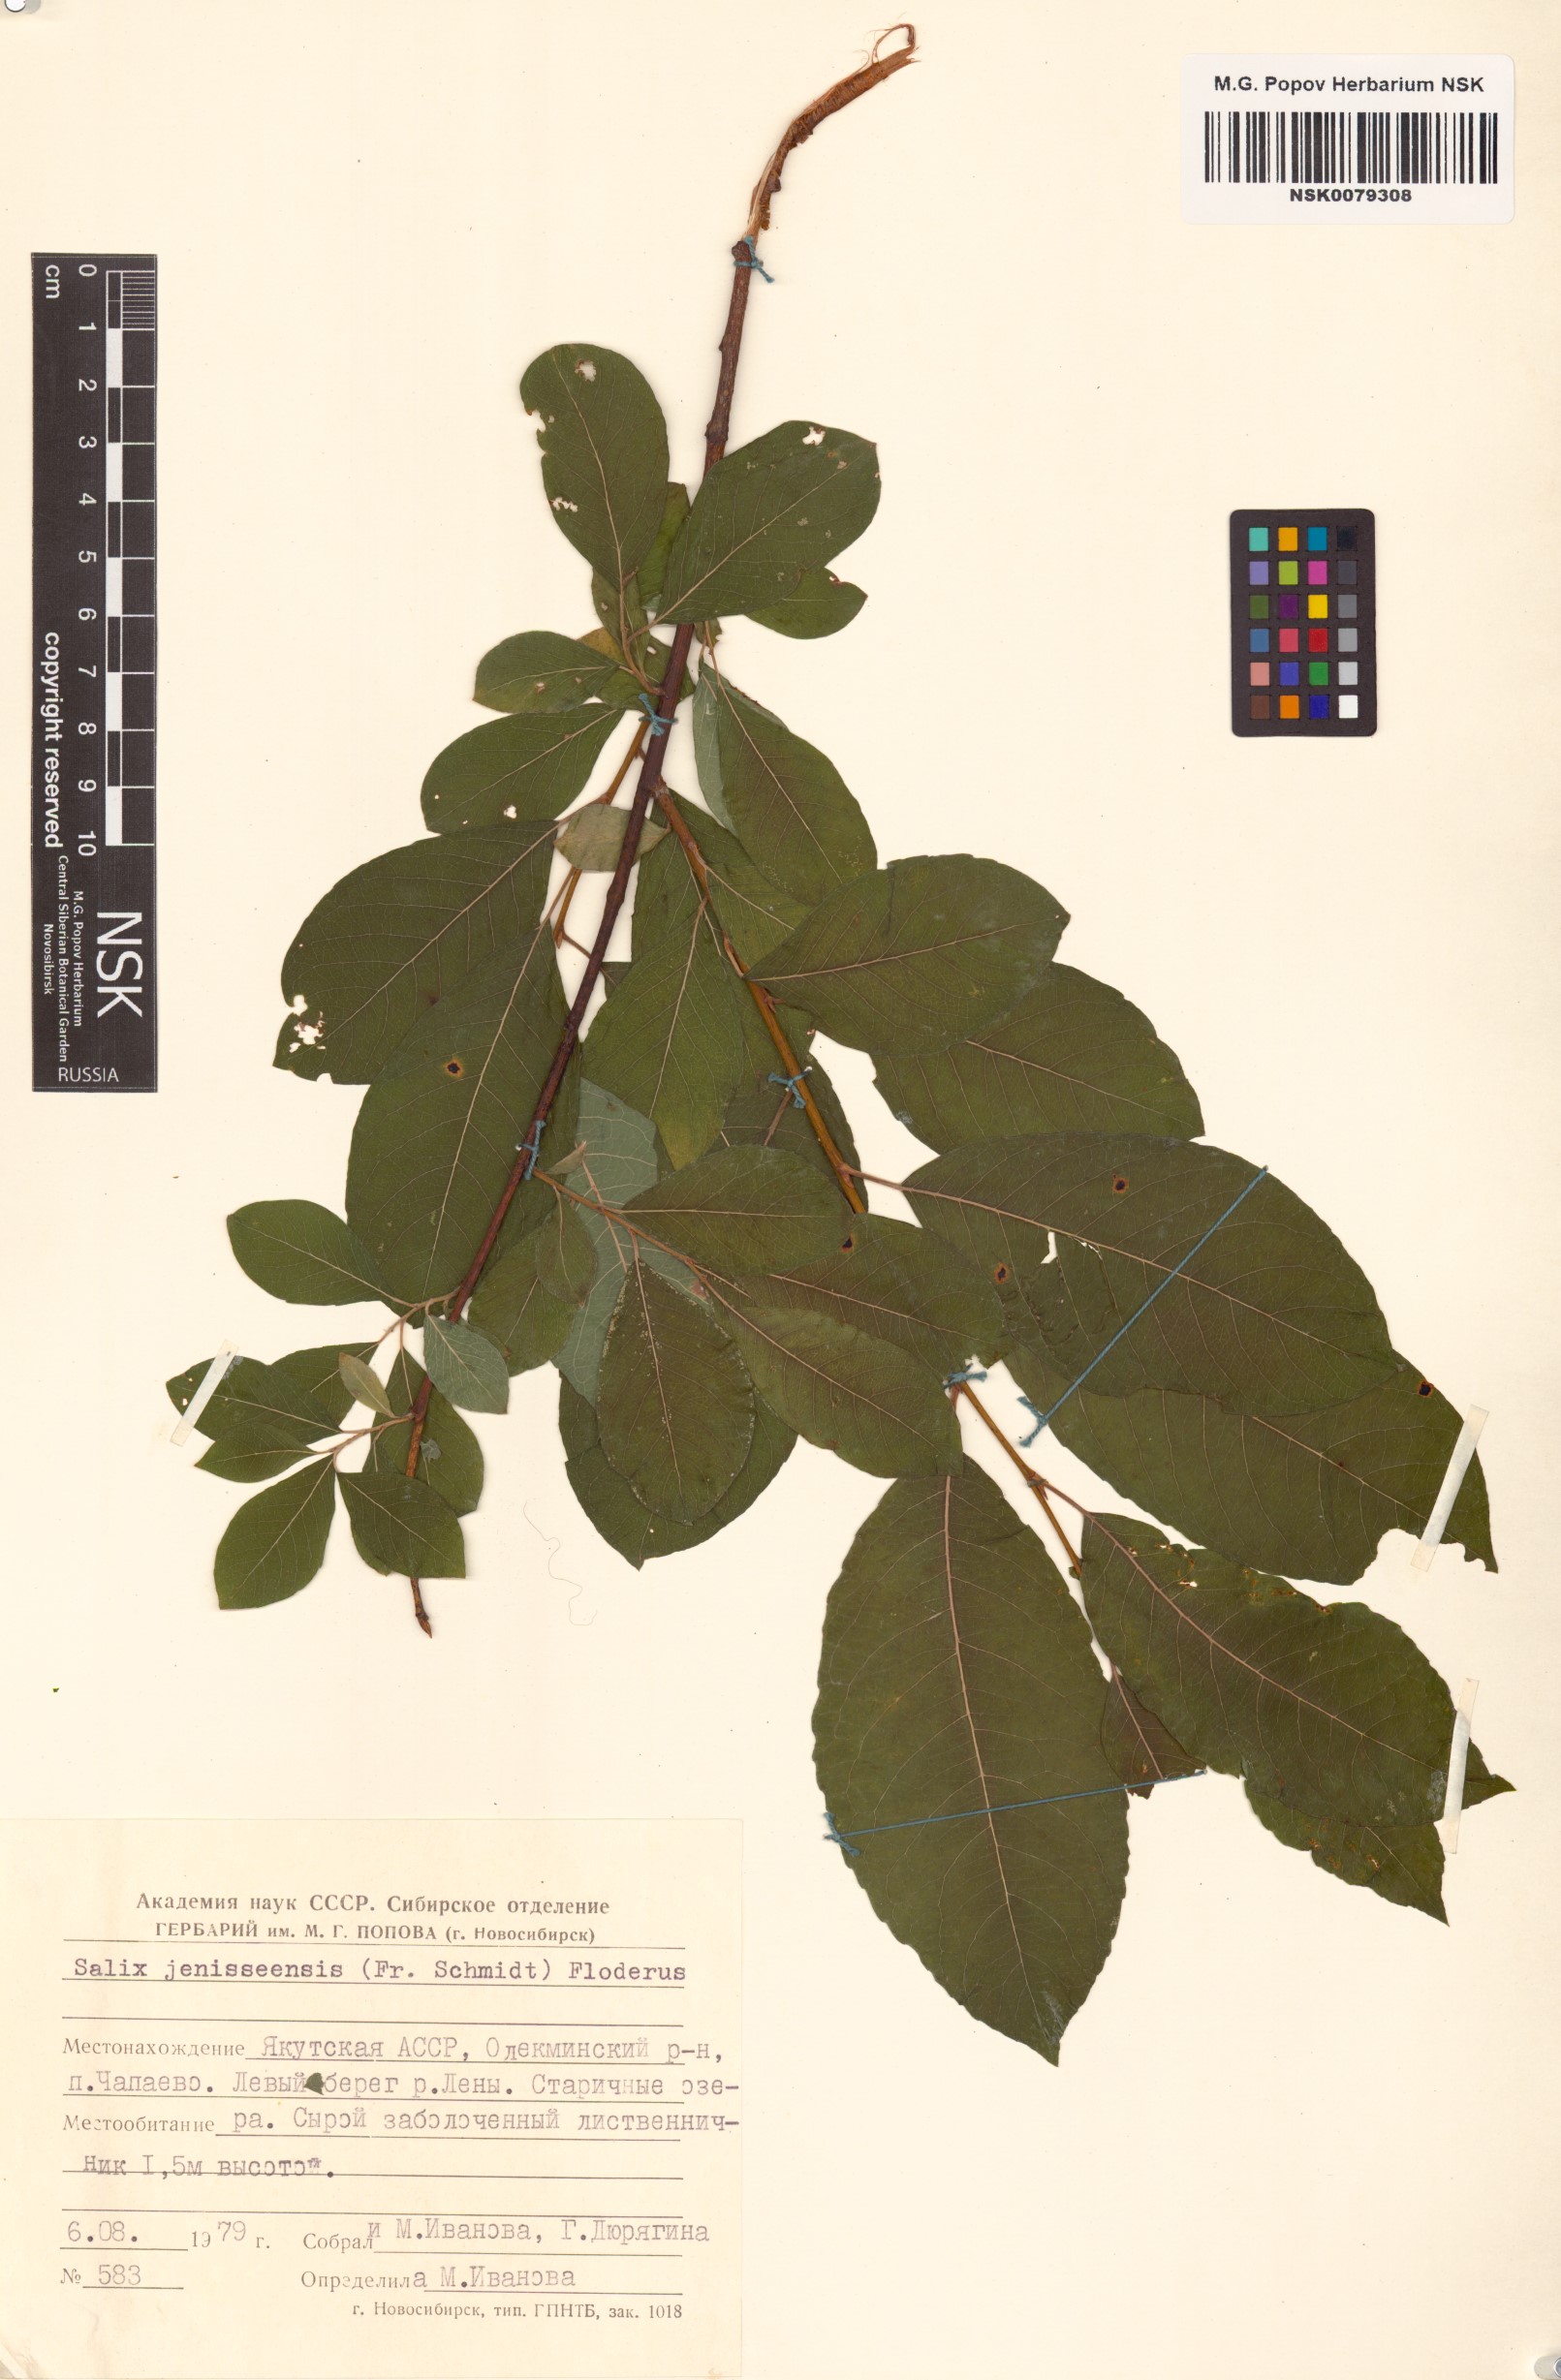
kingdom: Plantae
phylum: Tracheophyta
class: Magnoliopsida
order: Malpighiales
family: Salicaceae
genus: Salix
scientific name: Salix jenisseensis
